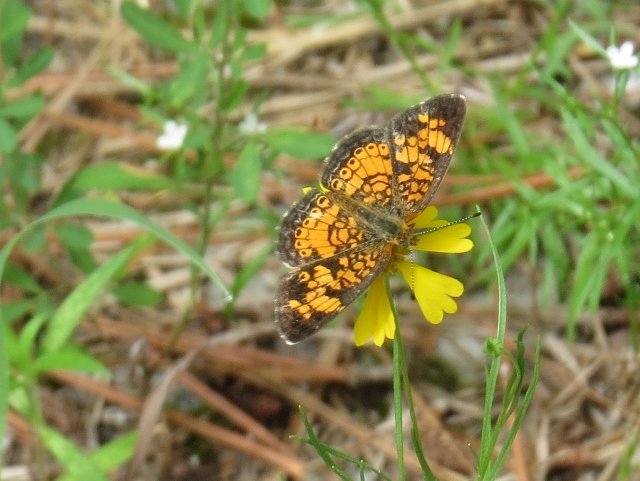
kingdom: Animalia
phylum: Arthropoda
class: Insecta
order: Lepidoptera
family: Nymphalidae
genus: Phyciodes
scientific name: Phyciodes tharos
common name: Pearl Crescent
